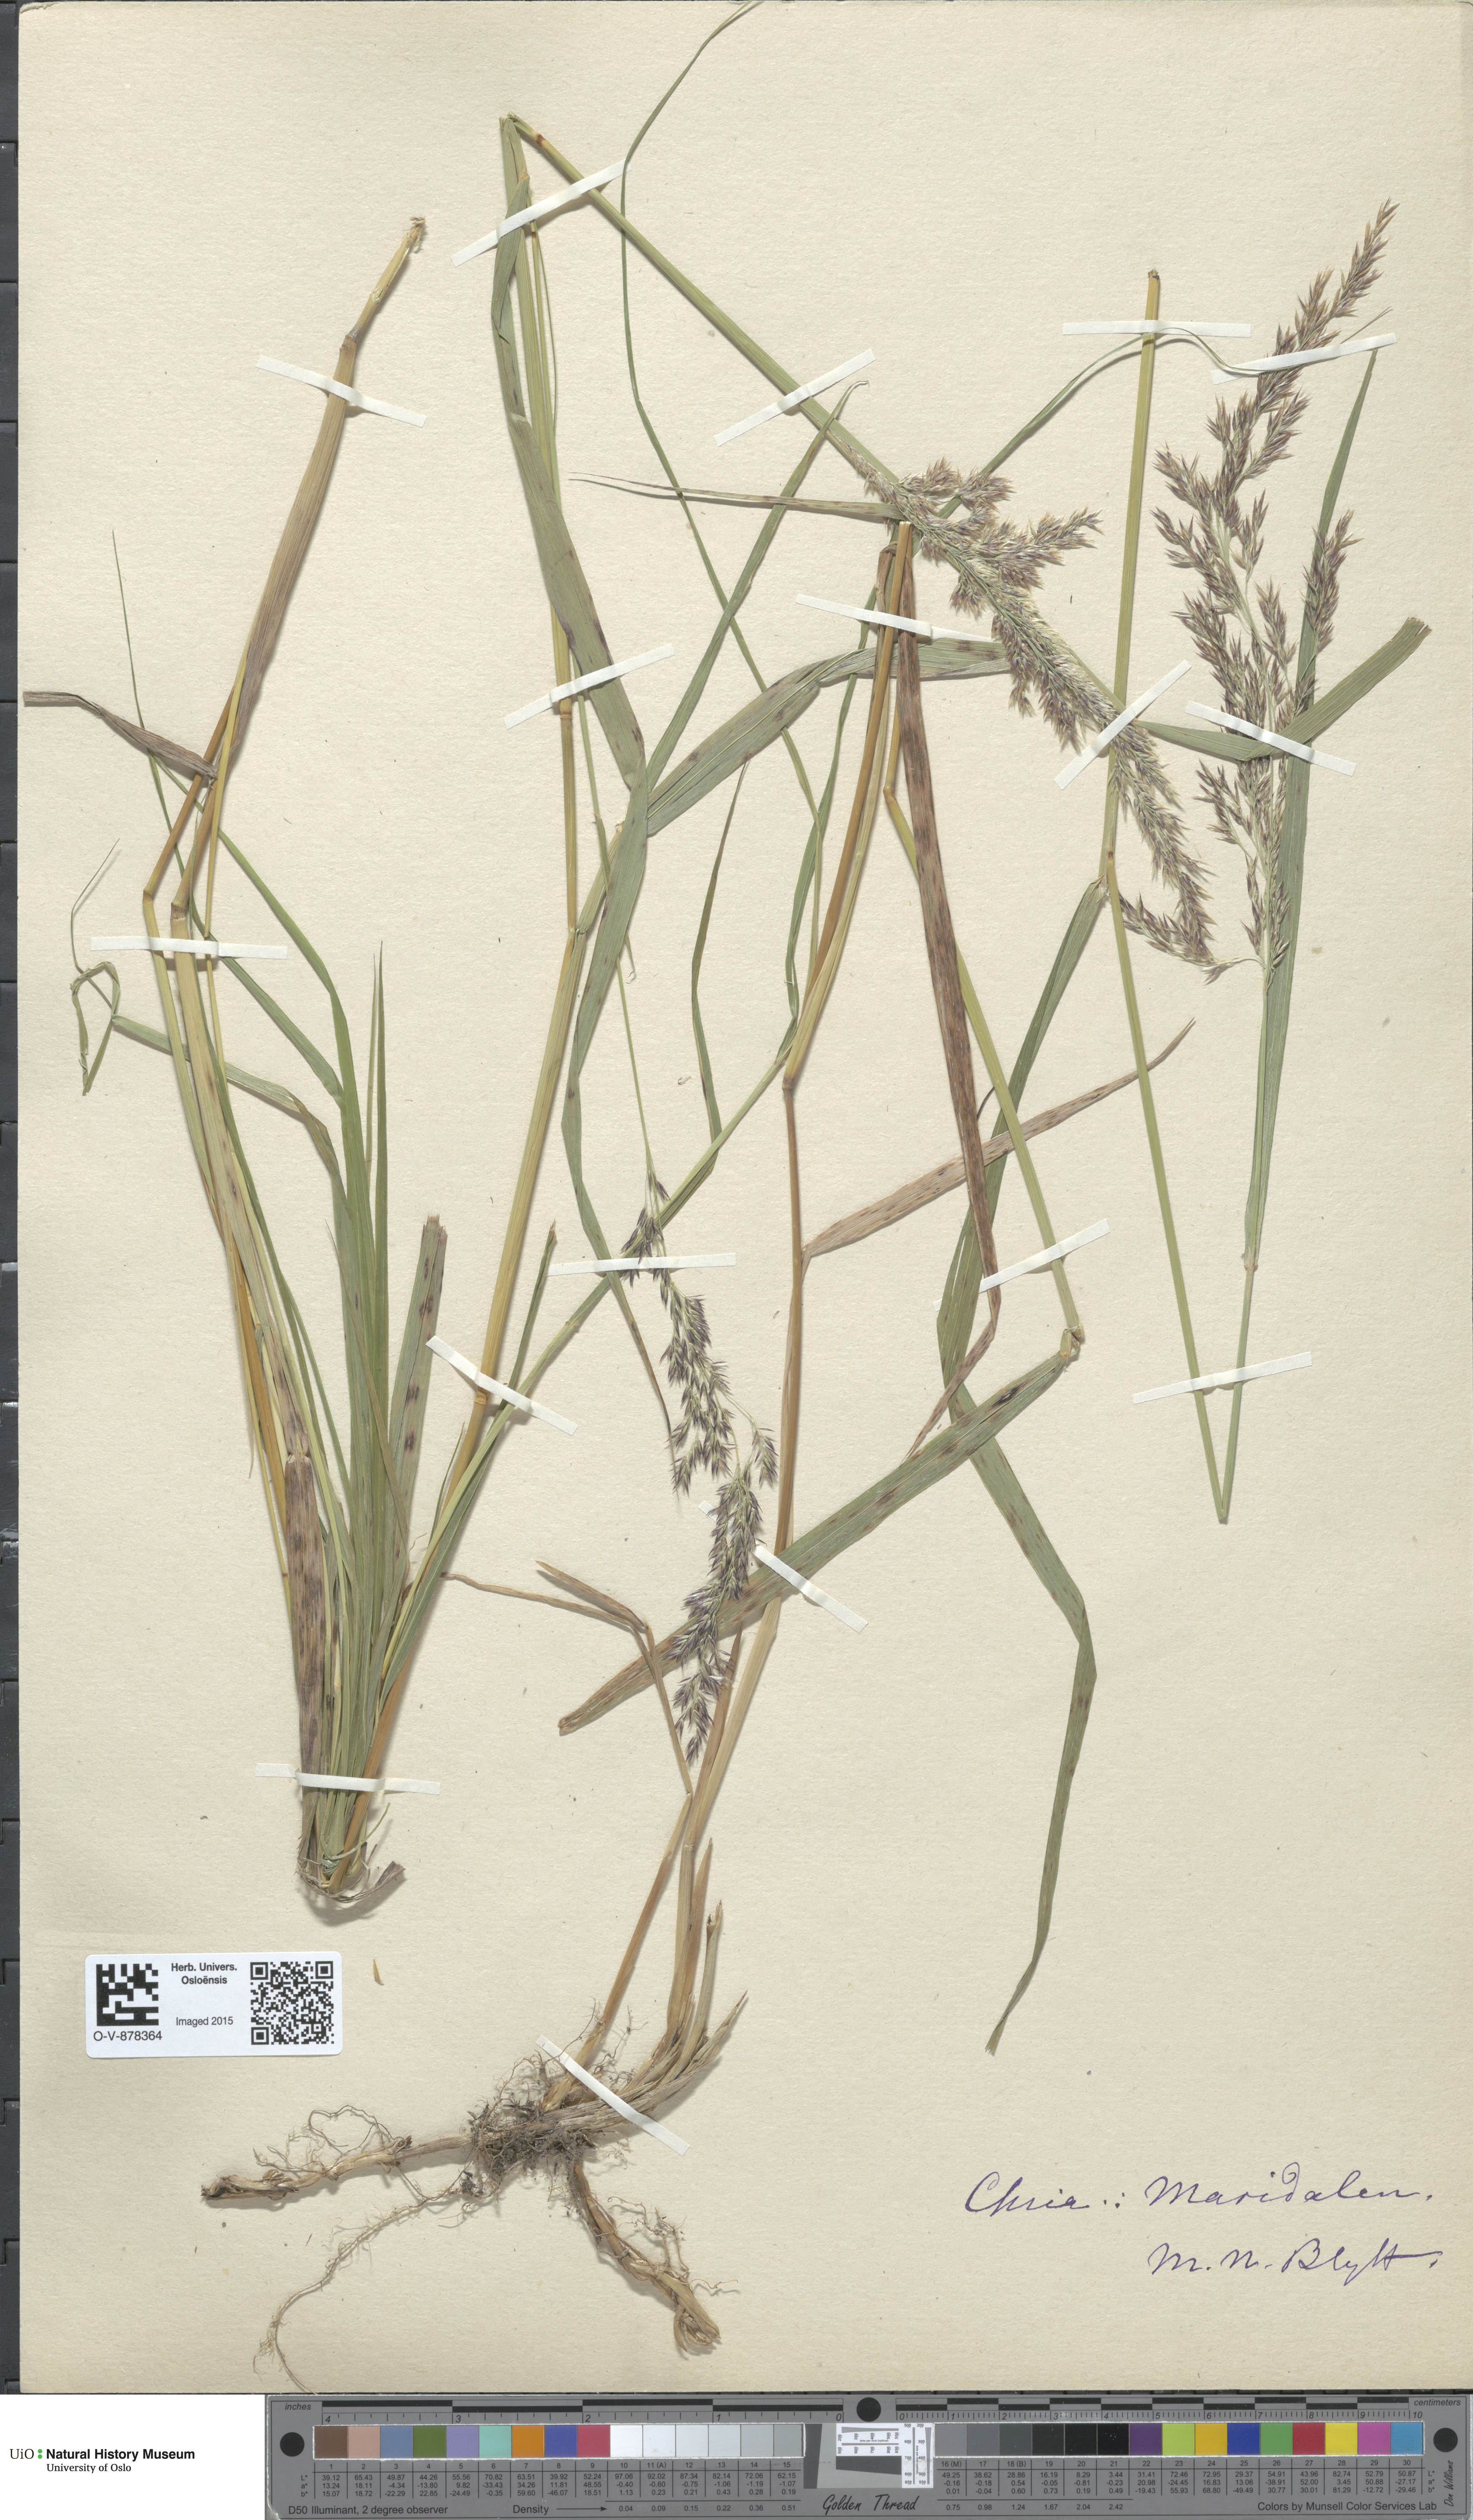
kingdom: Plantae
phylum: Tracheophyta
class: Liliopsida
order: Poales
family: Poaceae
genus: Calamagrostis
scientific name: Calamagrostis purpurea
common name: Scandinavian small-reed
